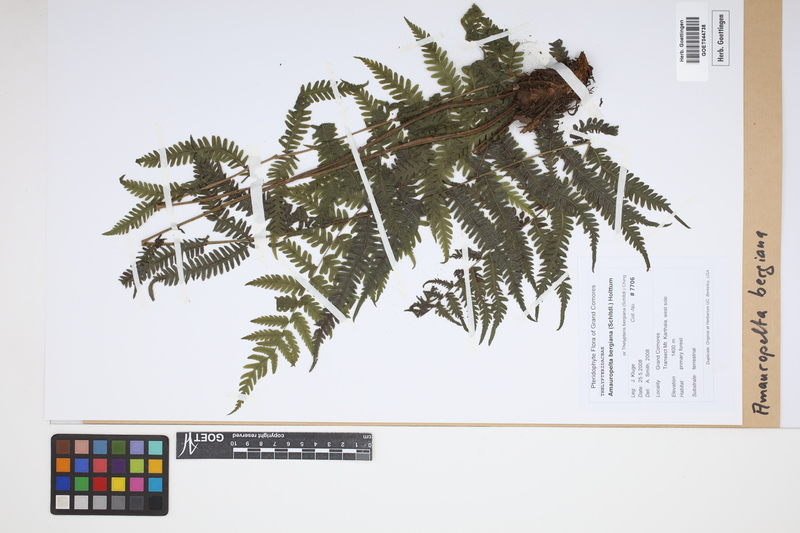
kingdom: Plantae
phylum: Tracheophyta
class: Polypodiopsida
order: Polypodiales
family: Thelypteridaceae
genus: Amauropelta
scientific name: Amauropelta bergiana
